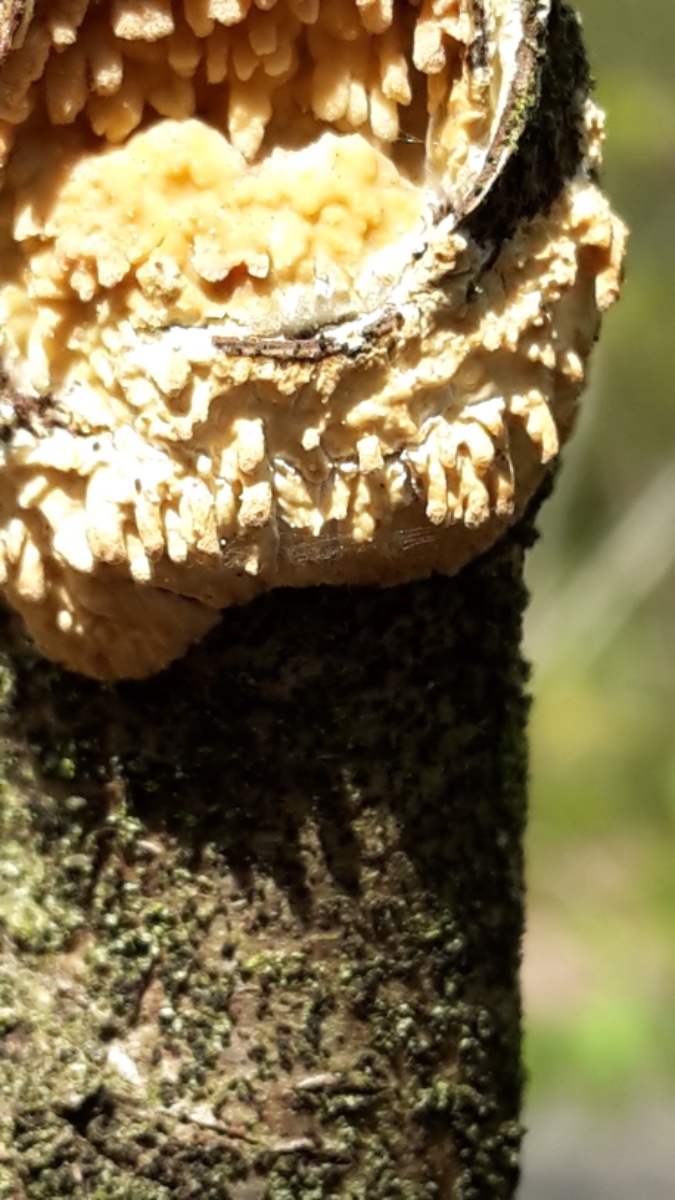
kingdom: Fungi
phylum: Basidiomycota
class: Agaricomycetes
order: Hymenochaetales
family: Schizoporaceae
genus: Xylodon
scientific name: Xylodon radula
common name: grovtandet kalkskind
